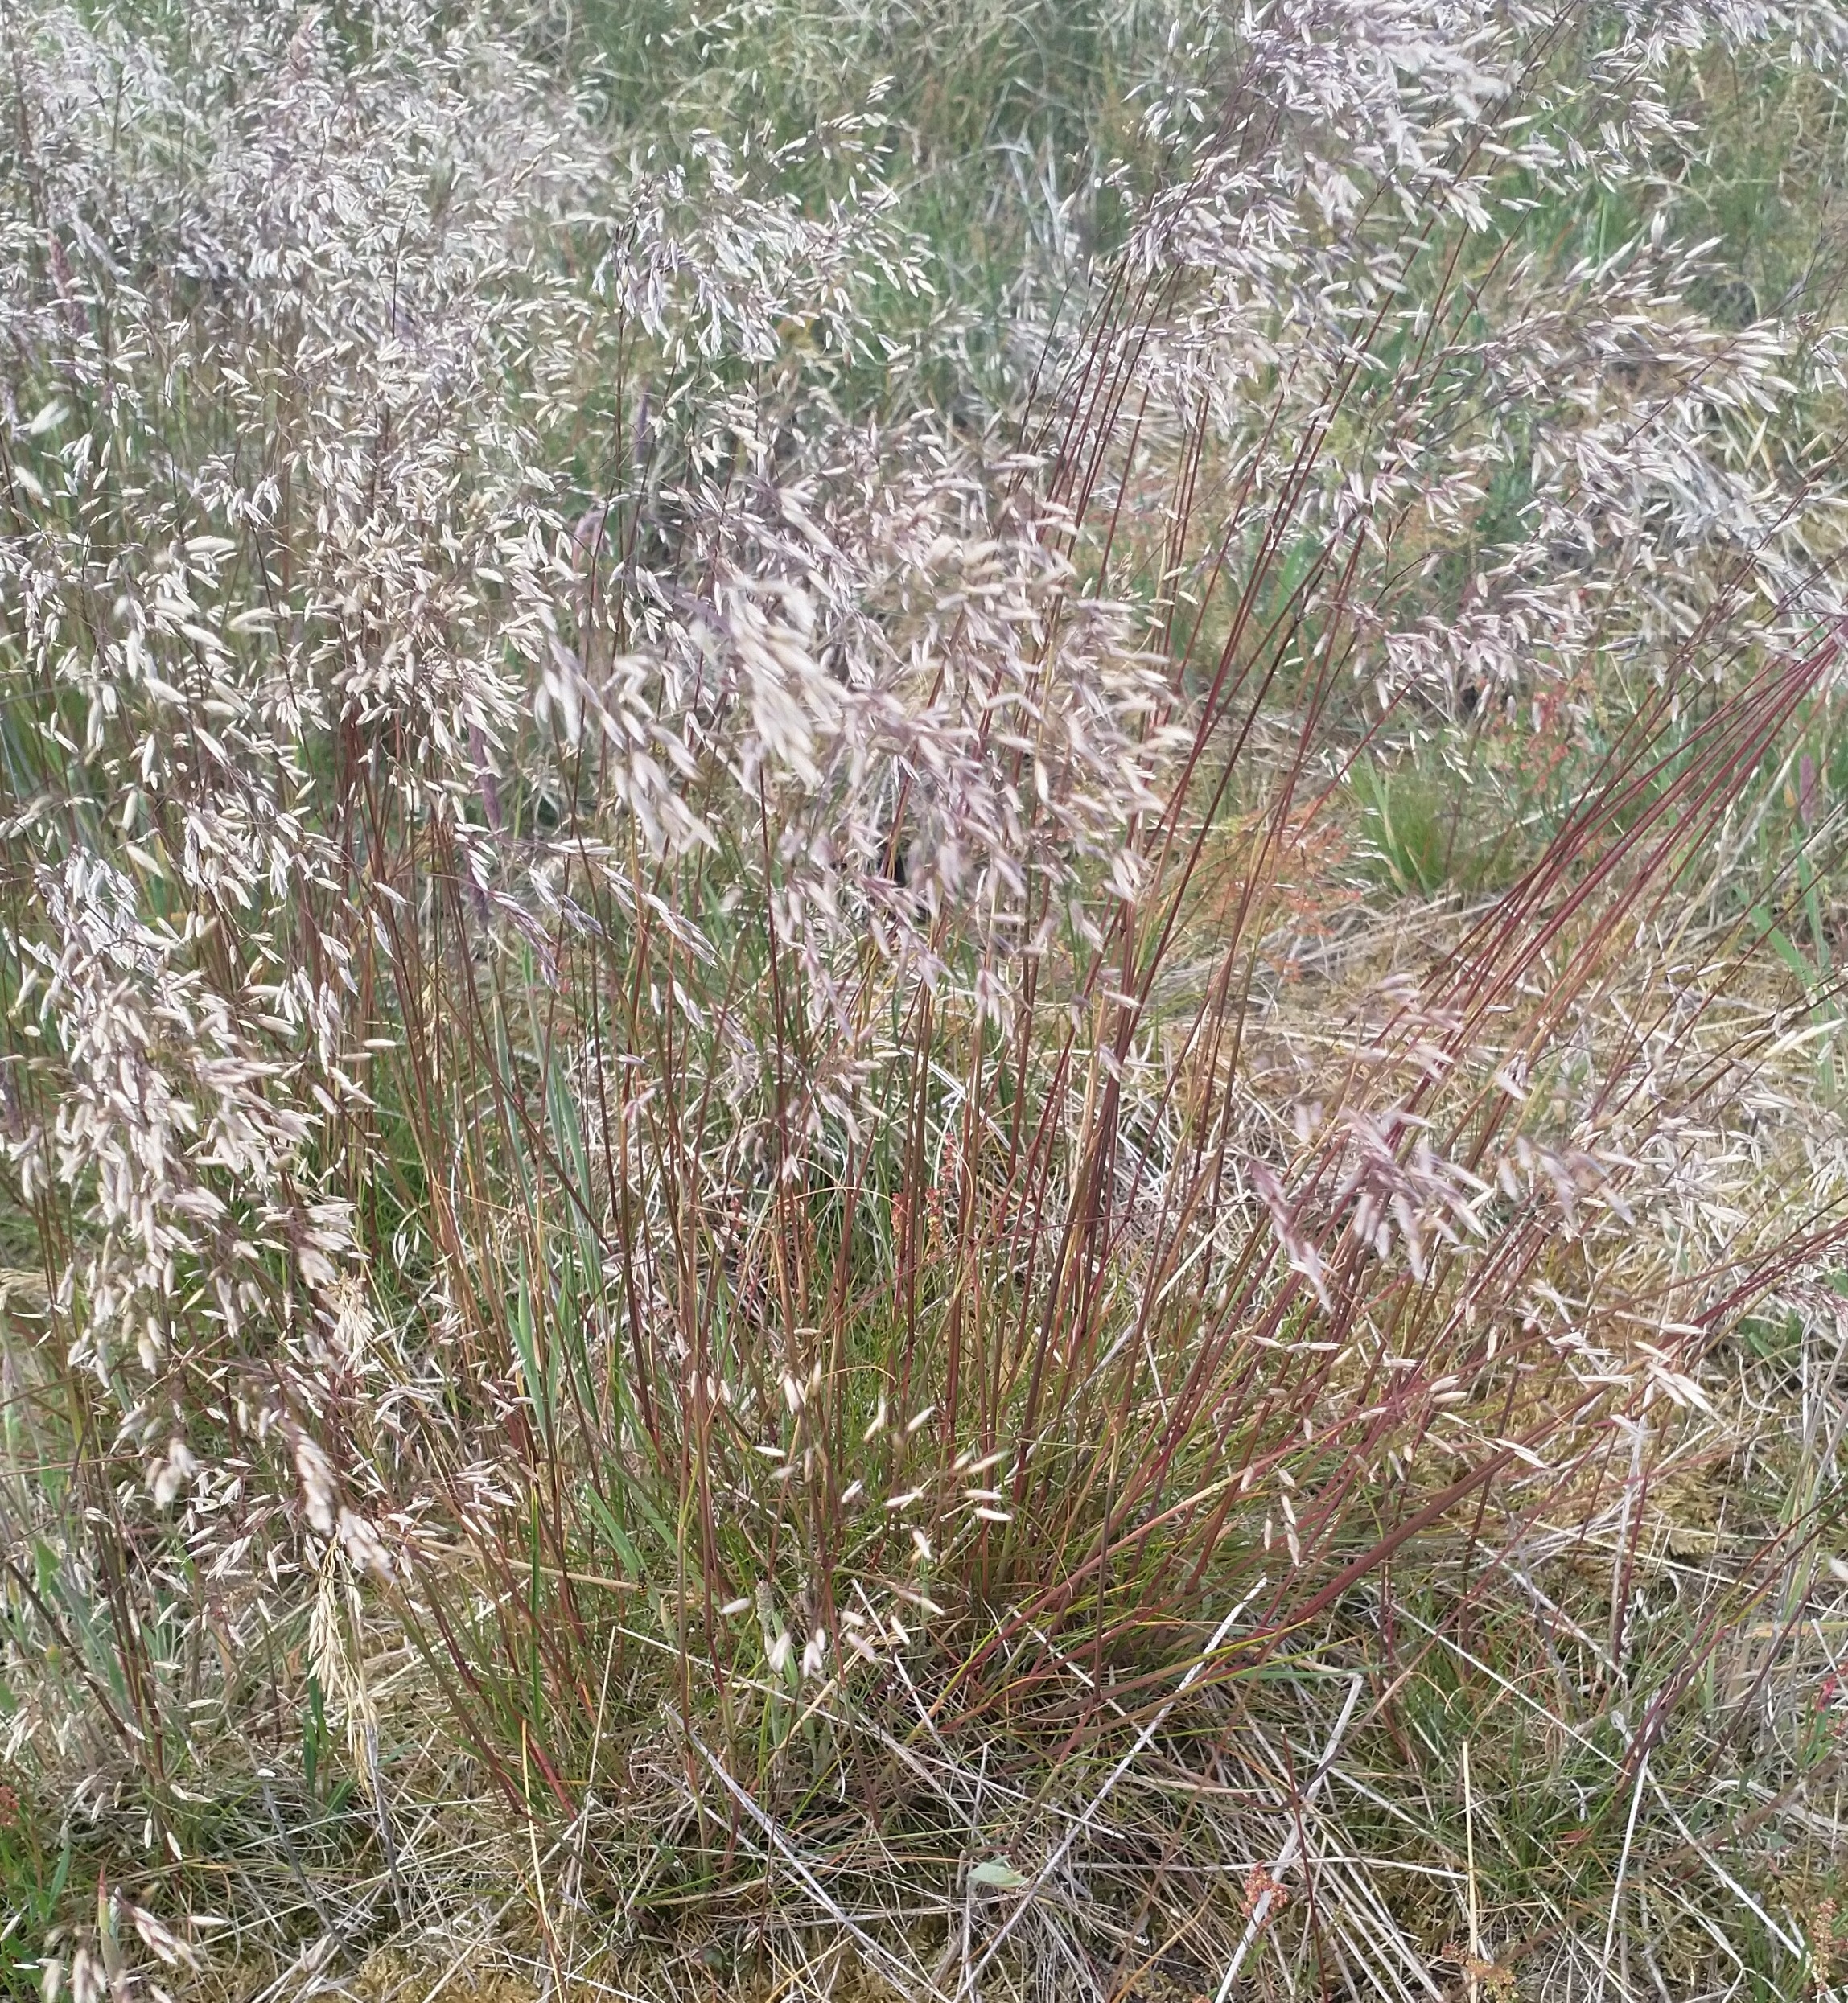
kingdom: Plantae
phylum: Tracheophyta
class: Liliopsida
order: Poales
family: Poaceae
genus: Avenella
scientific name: Avenella flexuosa
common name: Bølget bunke
